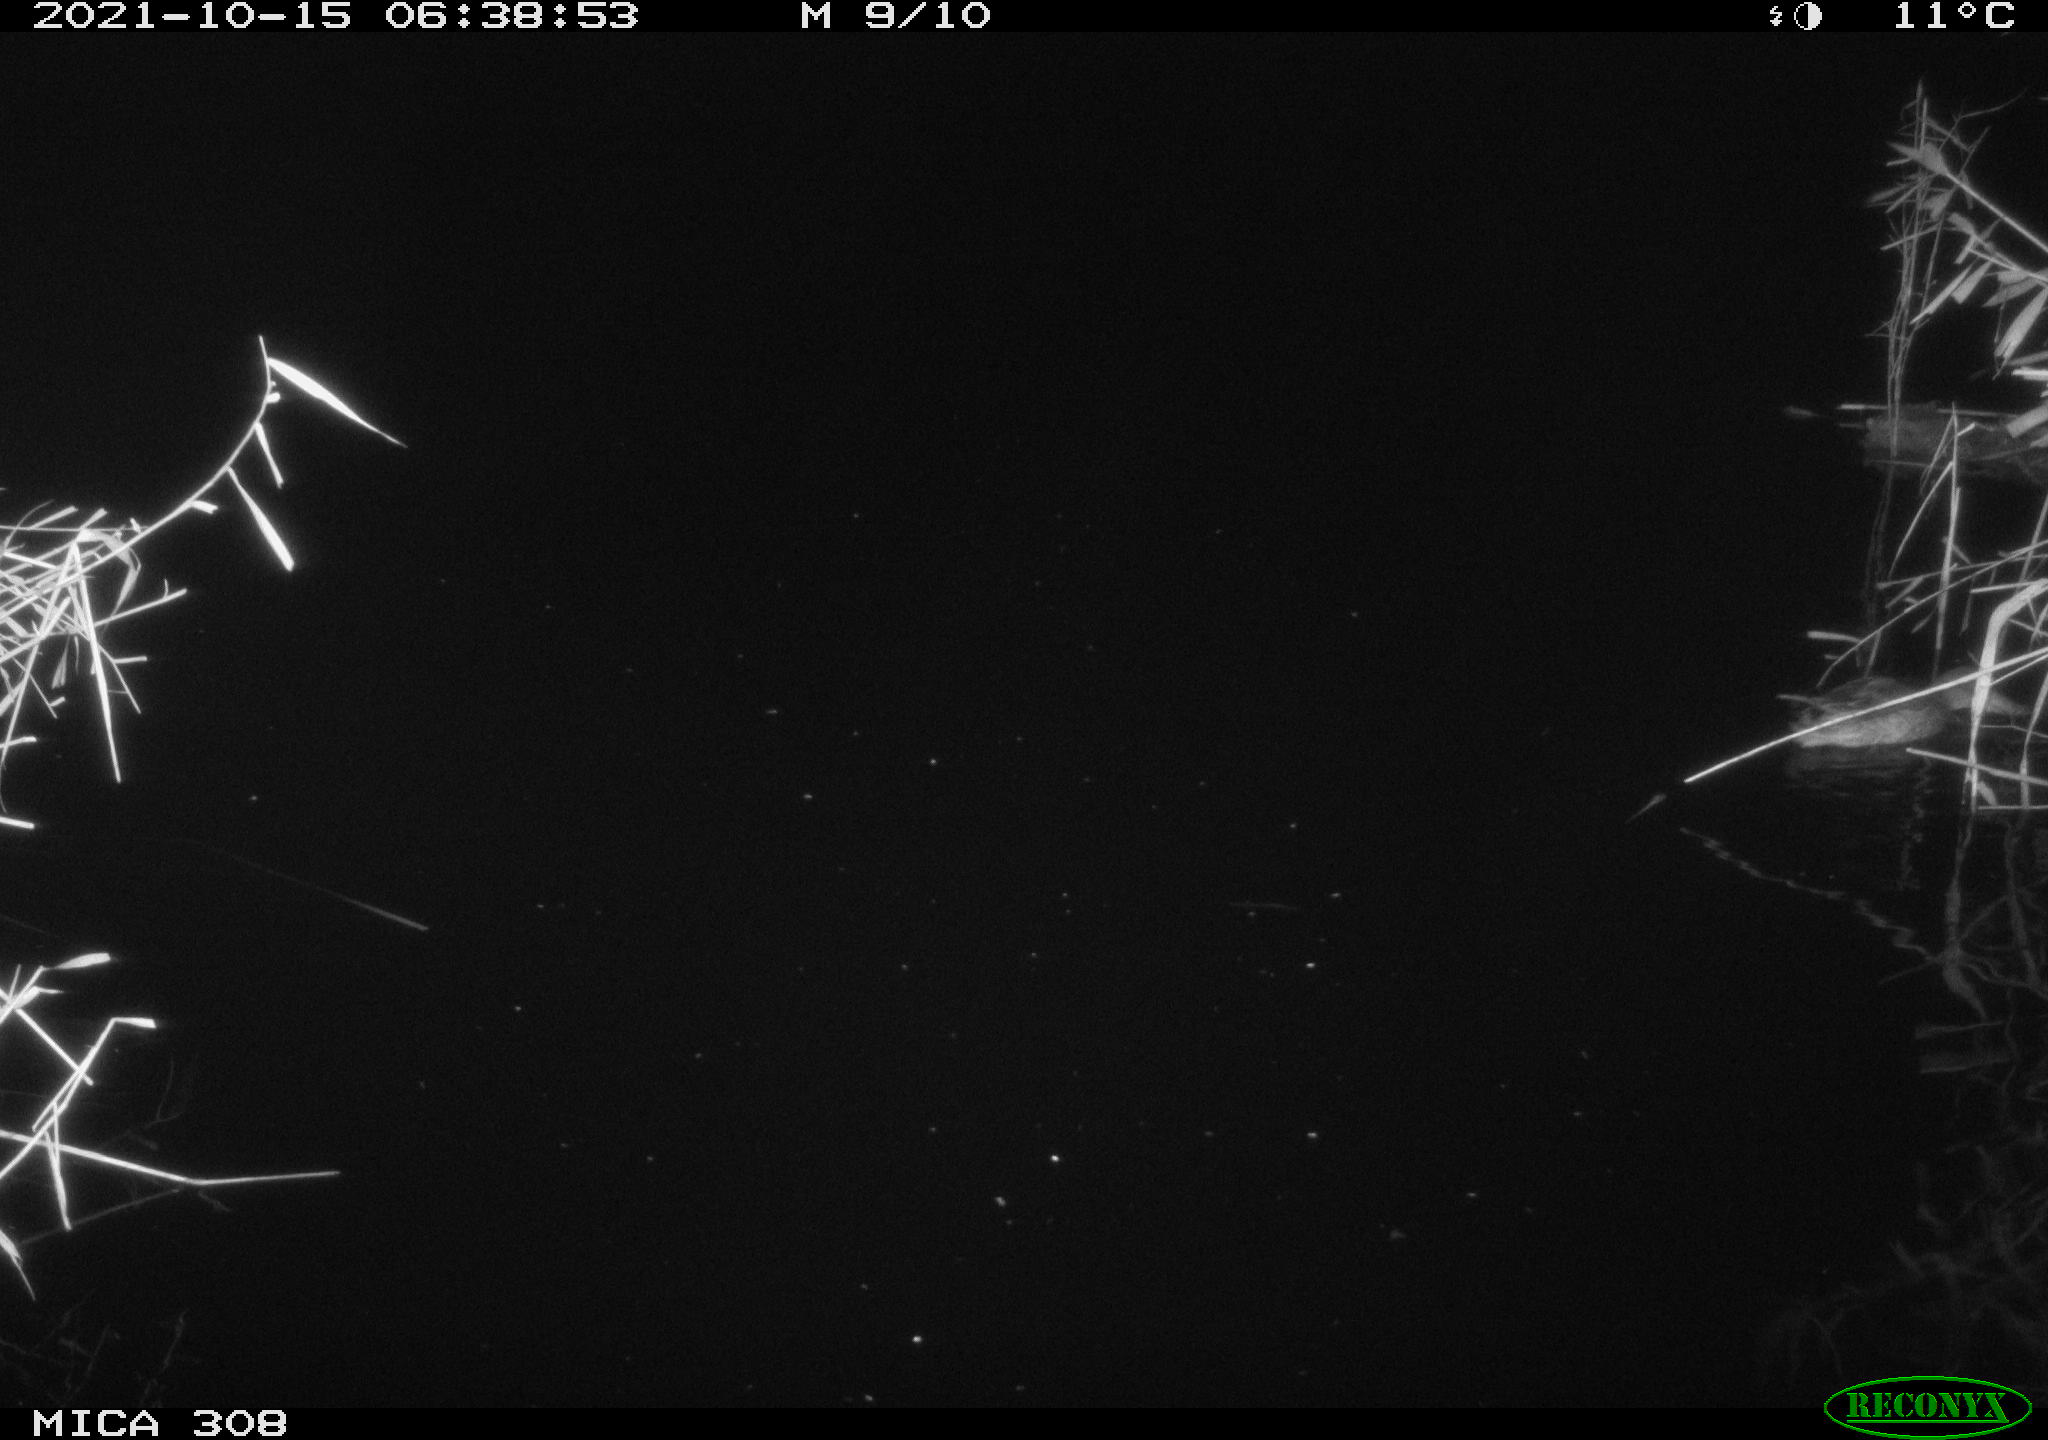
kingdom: Animalia
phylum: Chordata
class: Aves
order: Anseriformes
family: Anatidae
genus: Spatula
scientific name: Spatula clypeata
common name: Northern shoveler
